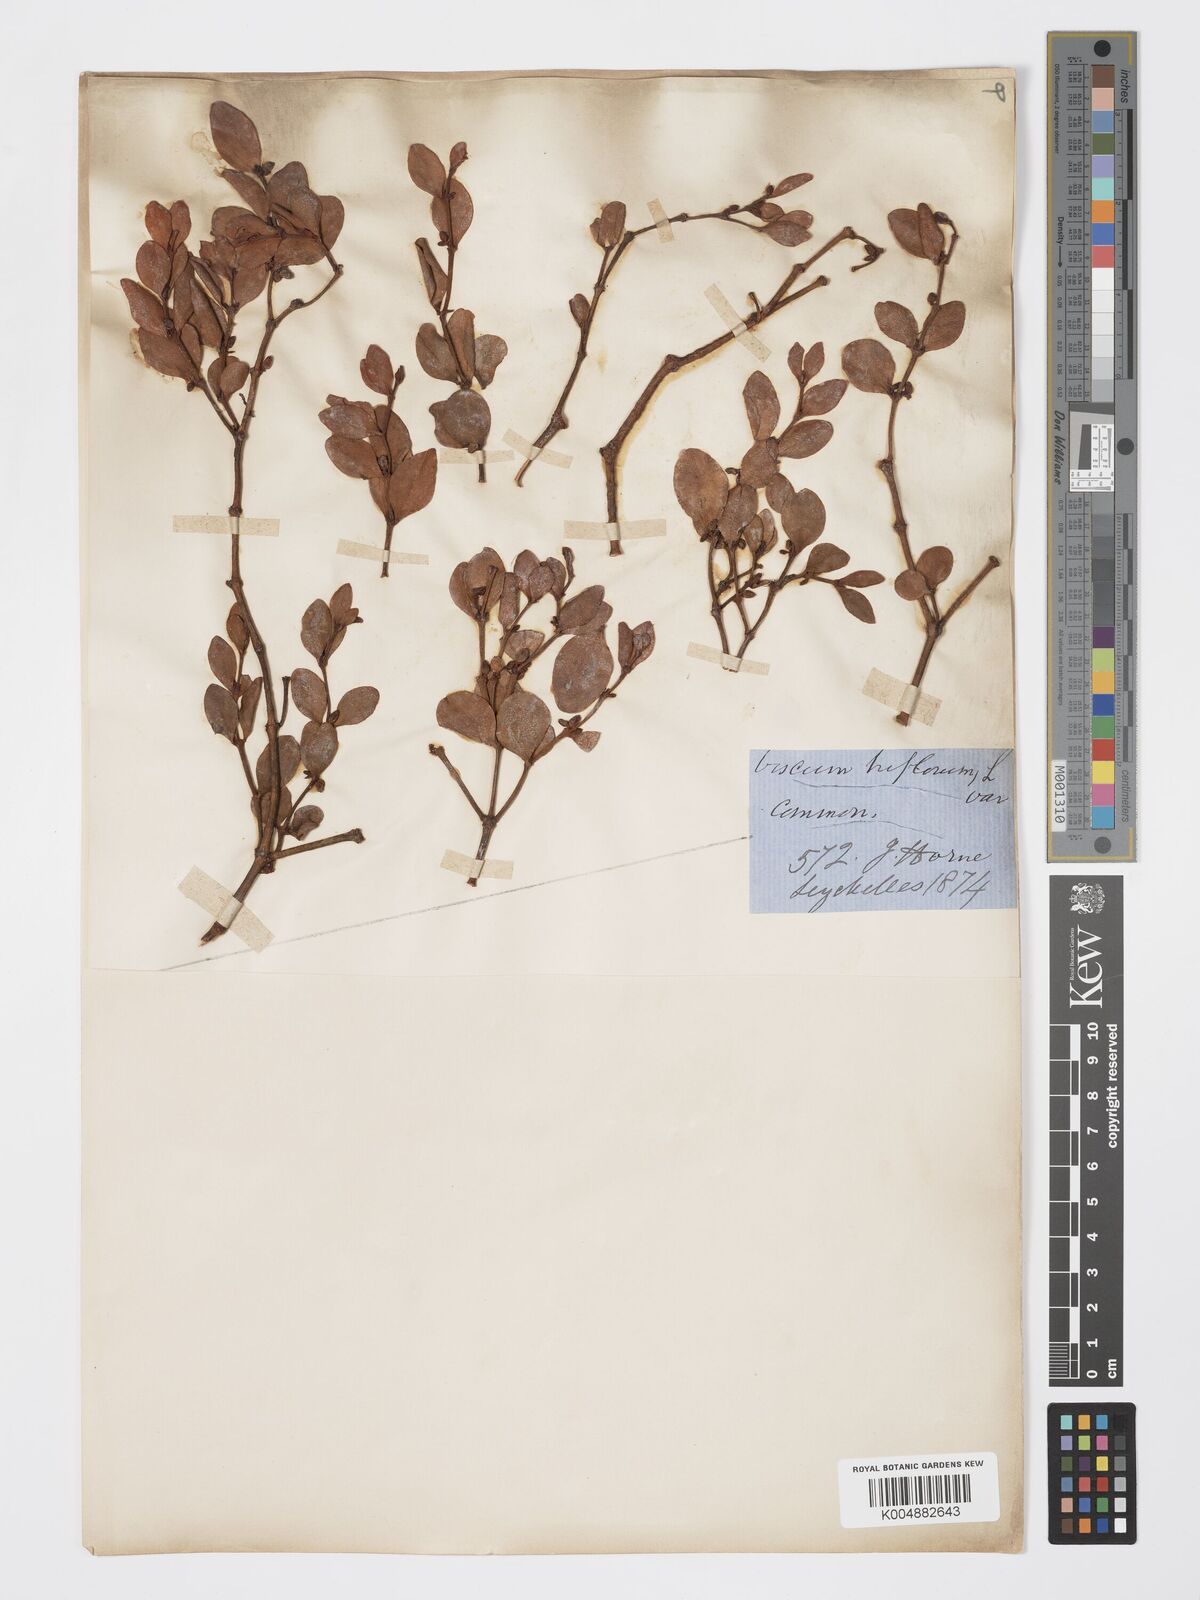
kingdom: Plantae
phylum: Tracheophyta
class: Magnoliopsida
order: Santalales
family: Viscaceae
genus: Viscum
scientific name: Viscum triflorum
